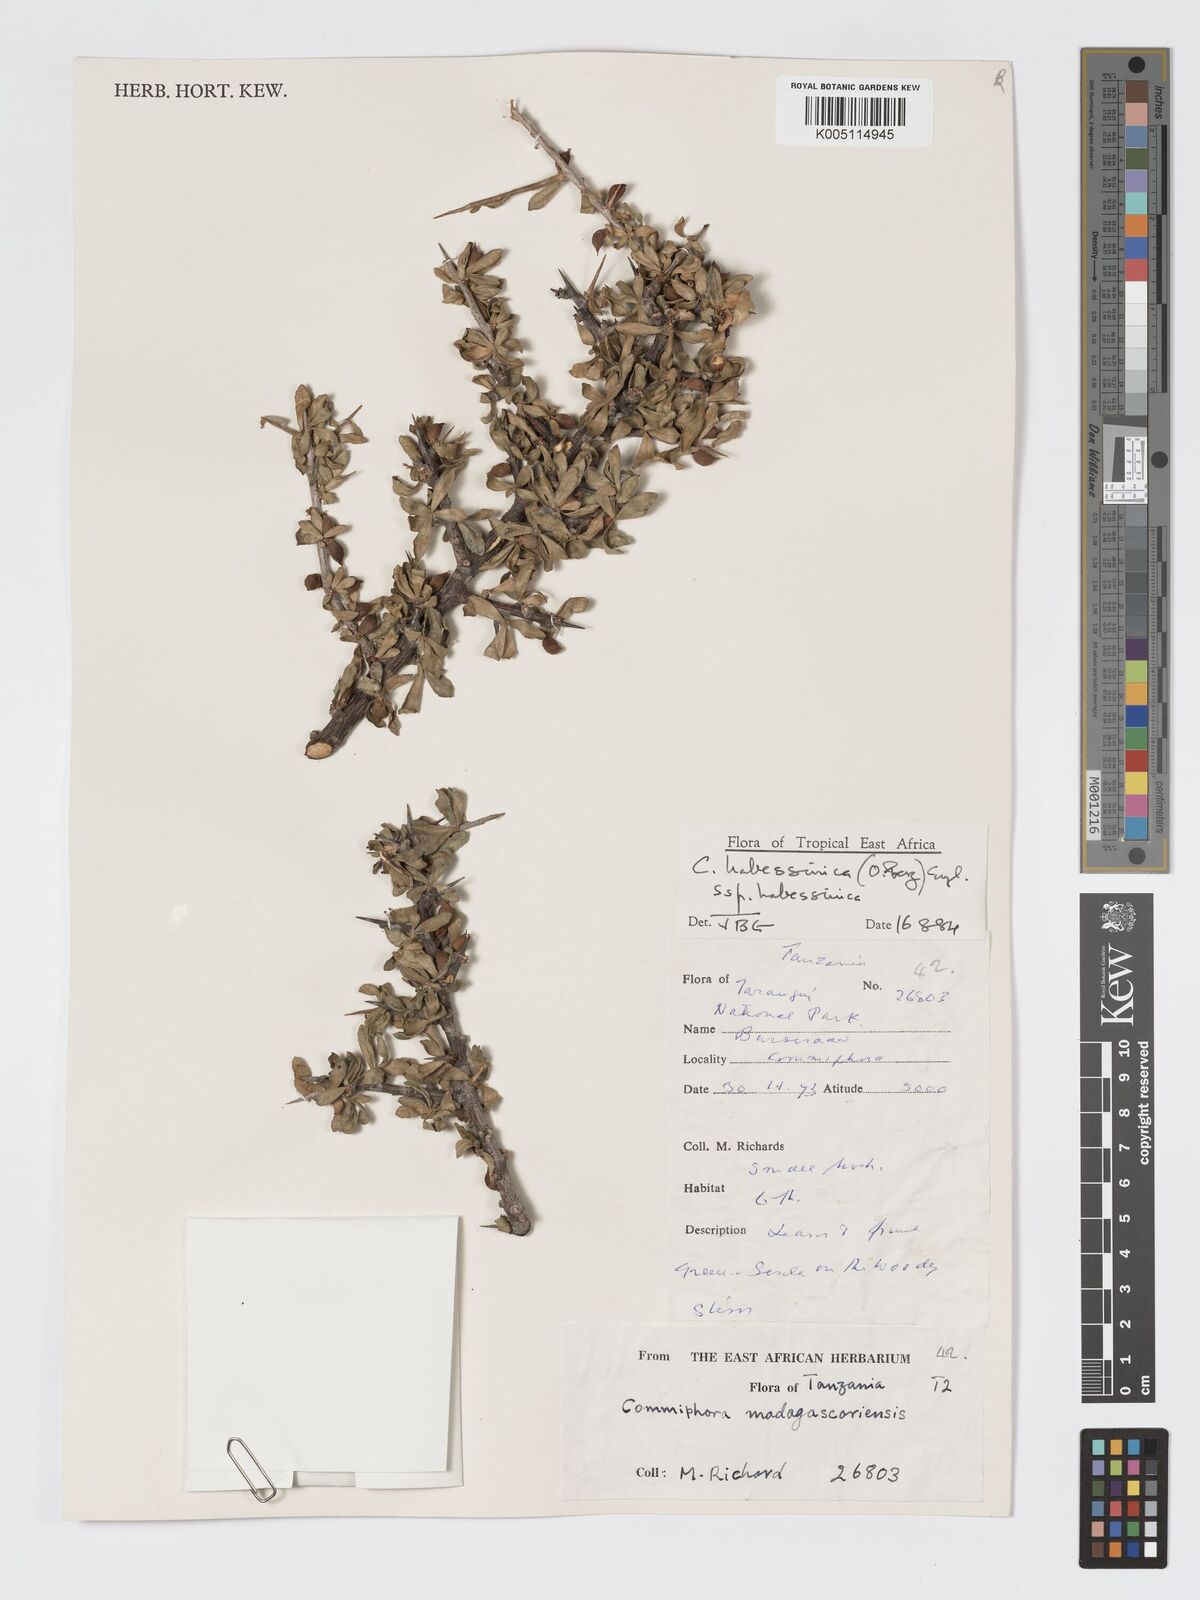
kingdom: Plantae
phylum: Tracheophyta
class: Magnoliopsida
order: Sapindales
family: Burseraceae
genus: Commiphora
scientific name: Commiphora kua
